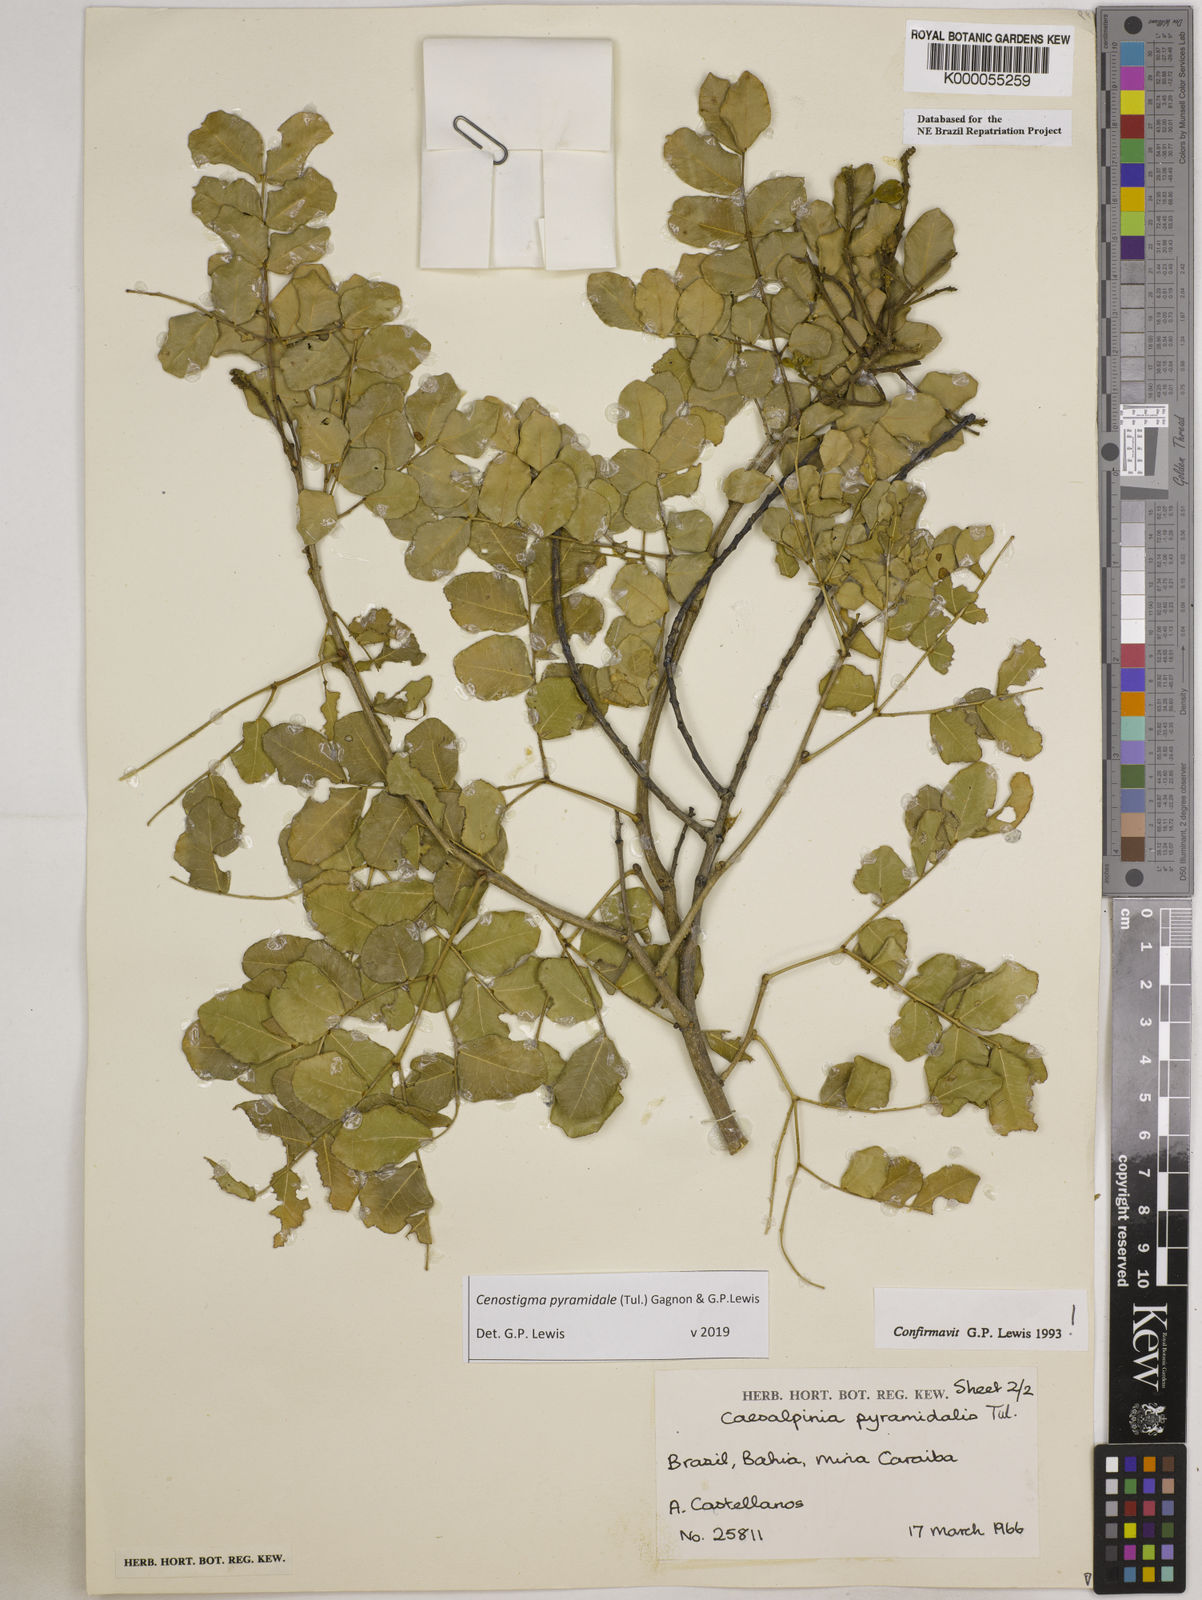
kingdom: Plantae
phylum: Tracheophyta
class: Magnoliopsida
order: Fabales
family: Fabaceae
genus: Cenostigma
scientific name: Cenostigma pyramidale
